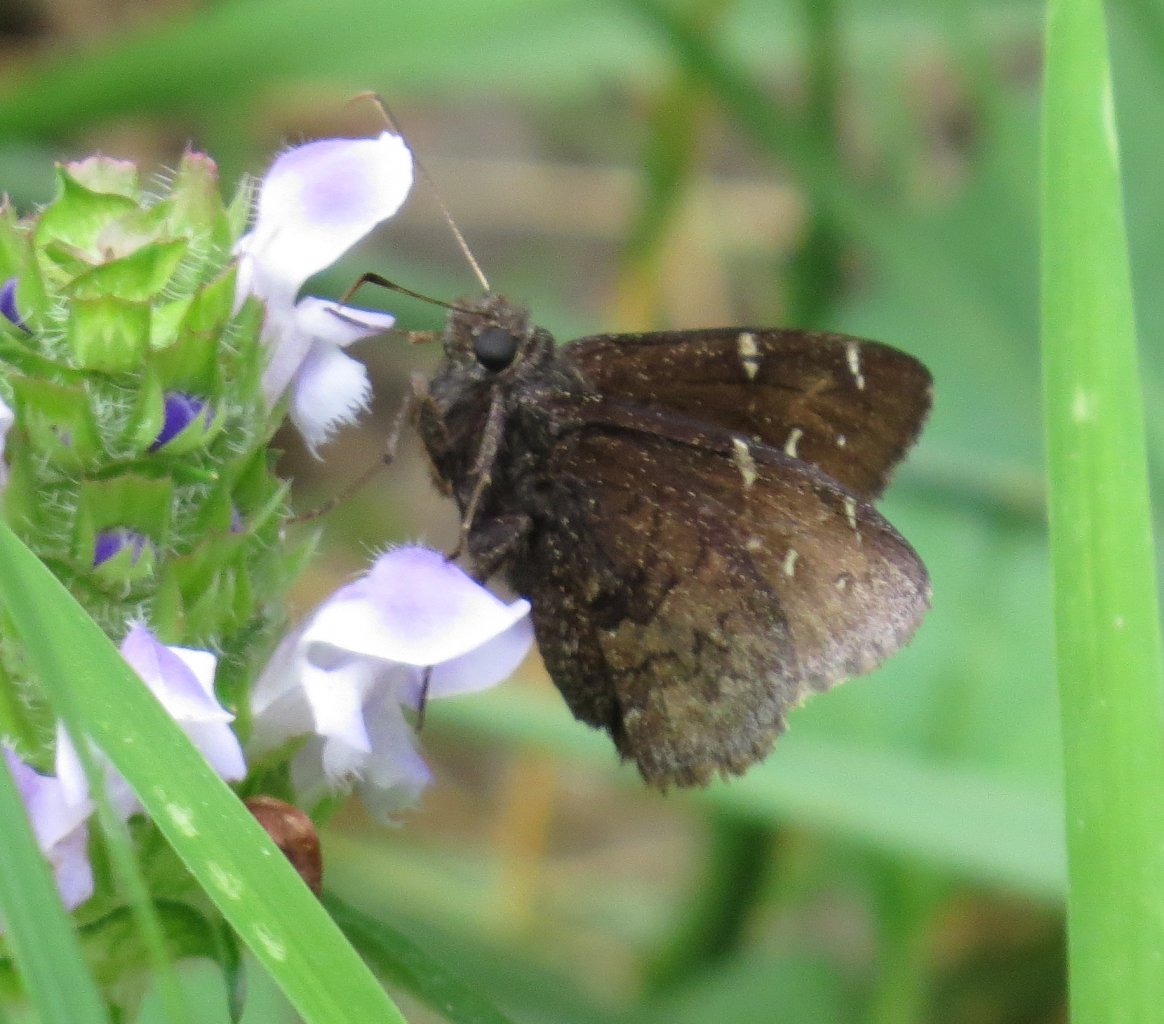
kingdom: Animalia
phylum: Arthropoda
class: Insecta
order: Lepidoptera
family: Hesperiidae
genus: Autochton
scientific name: Autochton
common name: Northern Cloudywing
